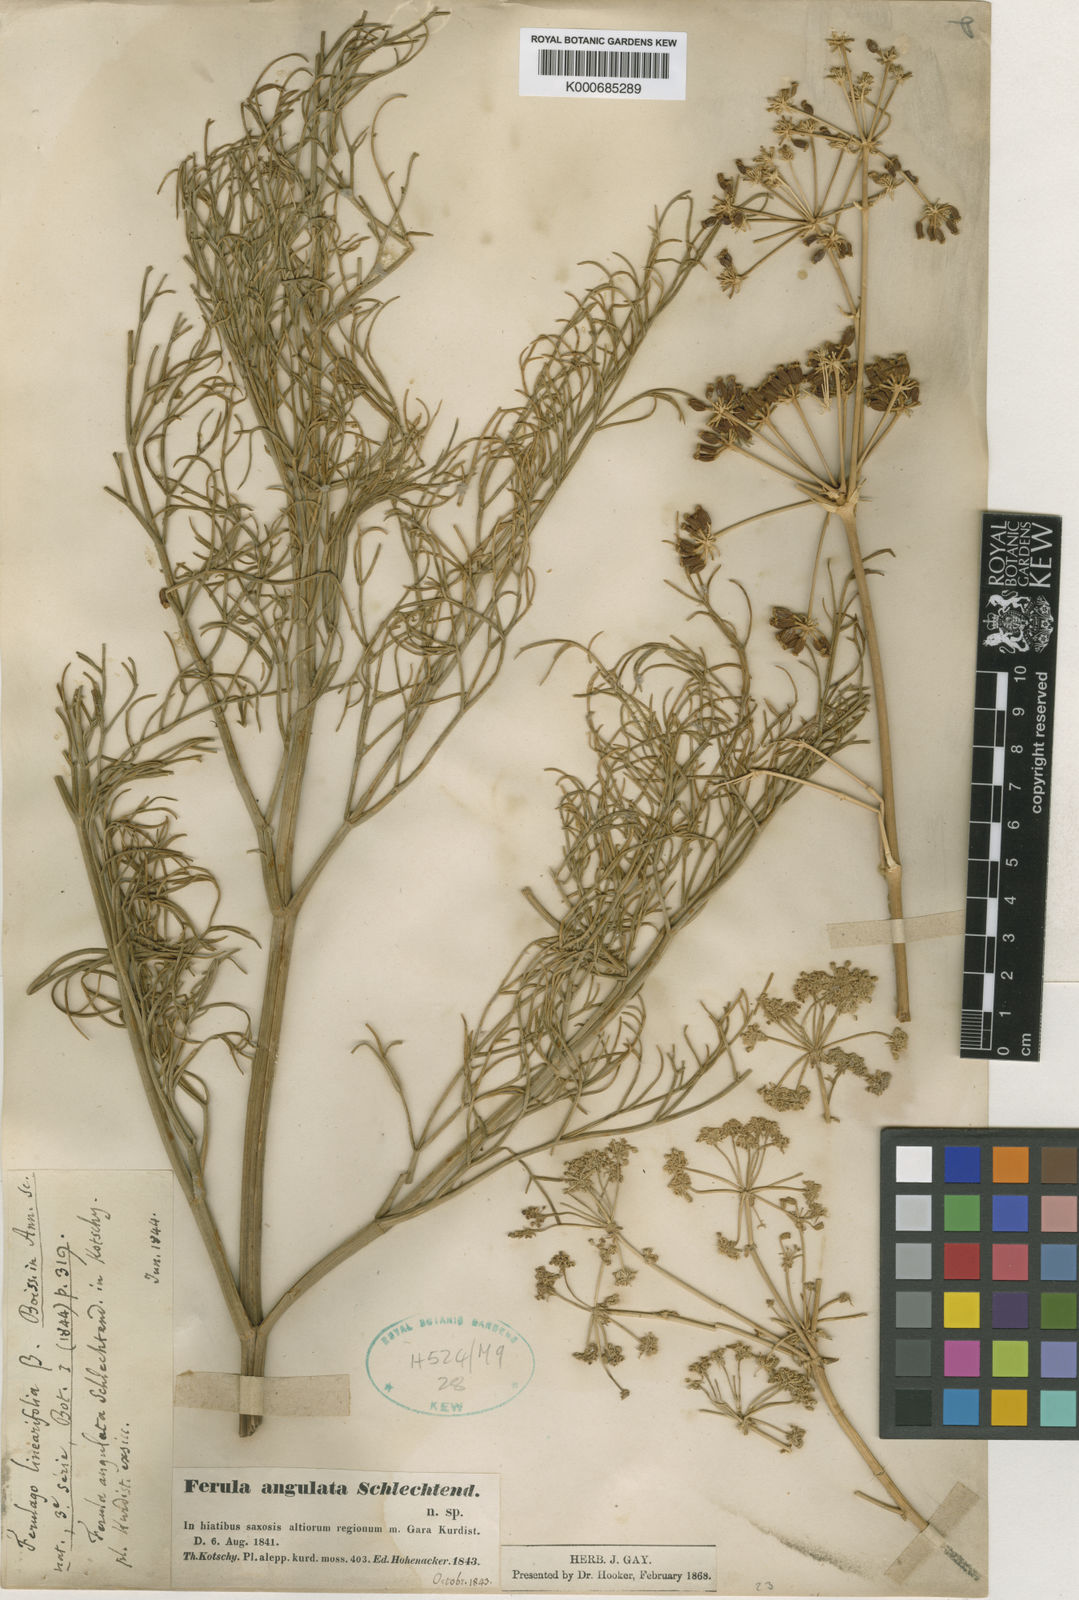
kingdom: Plantae
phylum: Tracheophyta
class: Magnoliopsida
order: Apiales
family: Apiaceae
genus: Ferulago
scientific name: Ferulago angulata
